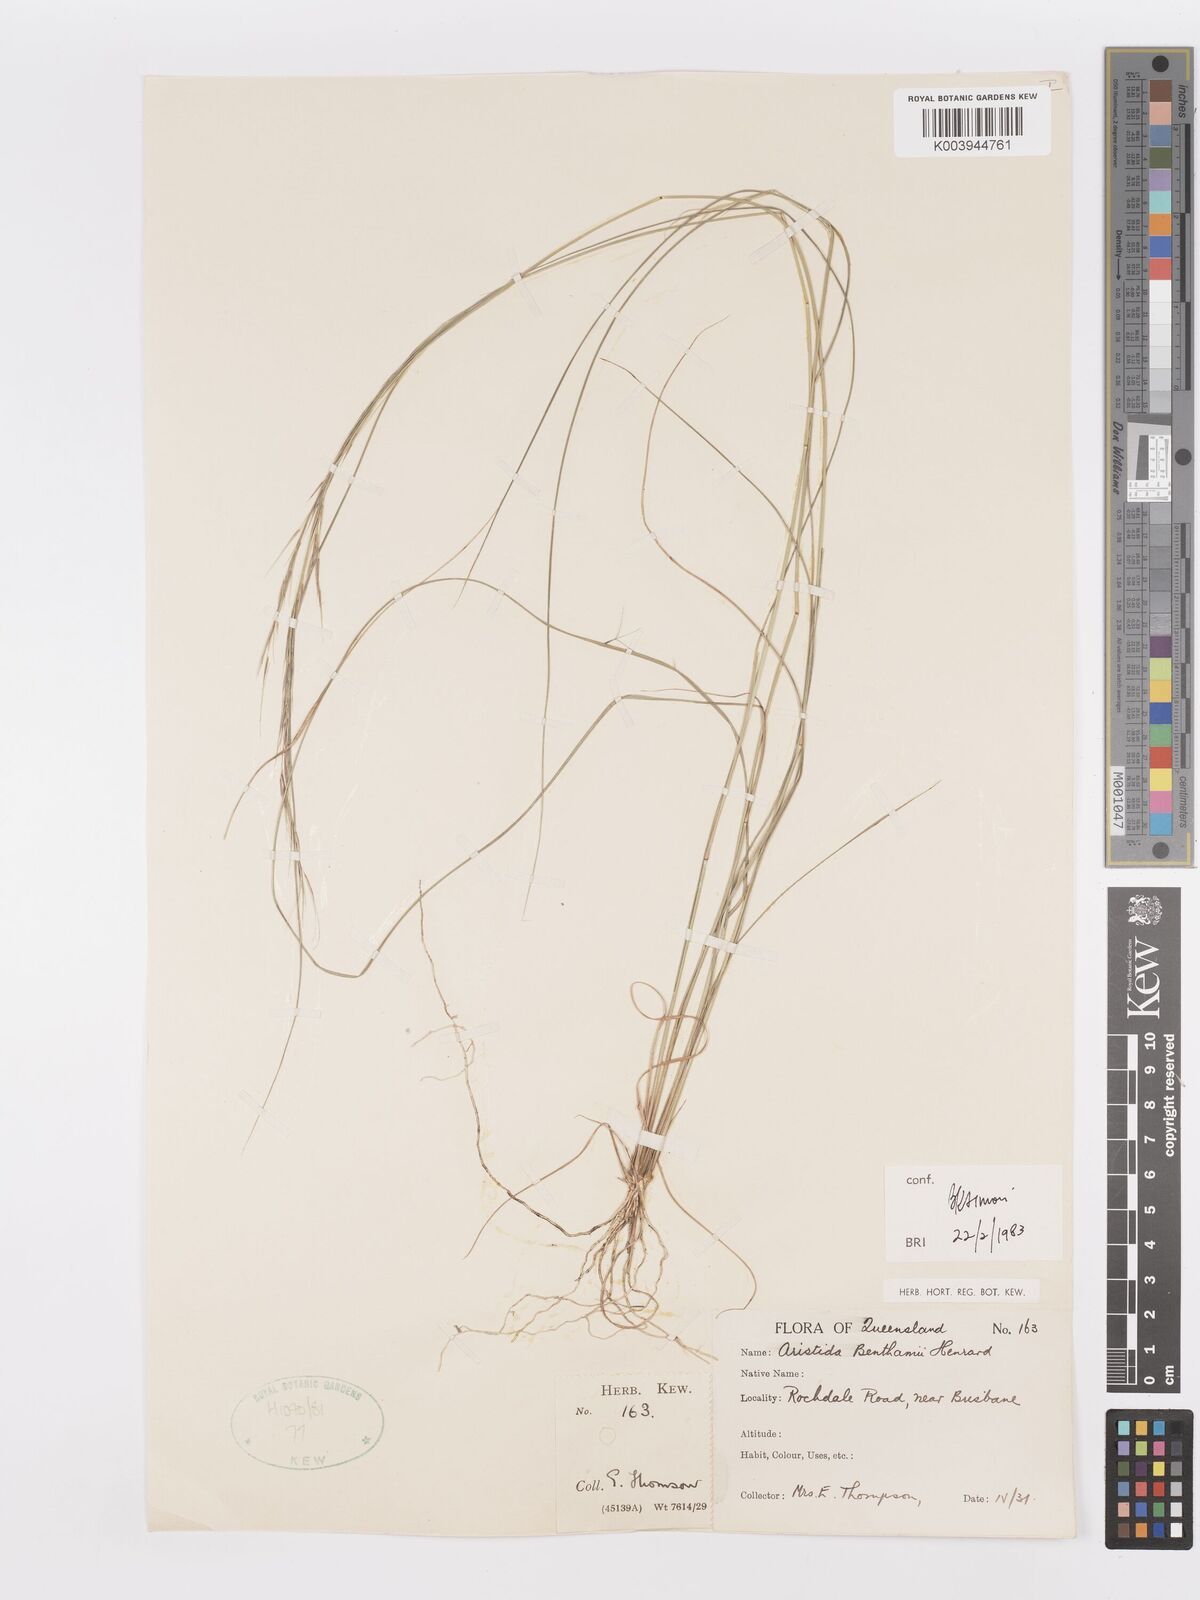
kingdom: Plantae
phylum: Tracheophyta
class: Liliopsida
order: Poales
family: Poaceae
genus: Aristida
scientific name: Aristida benthamii
